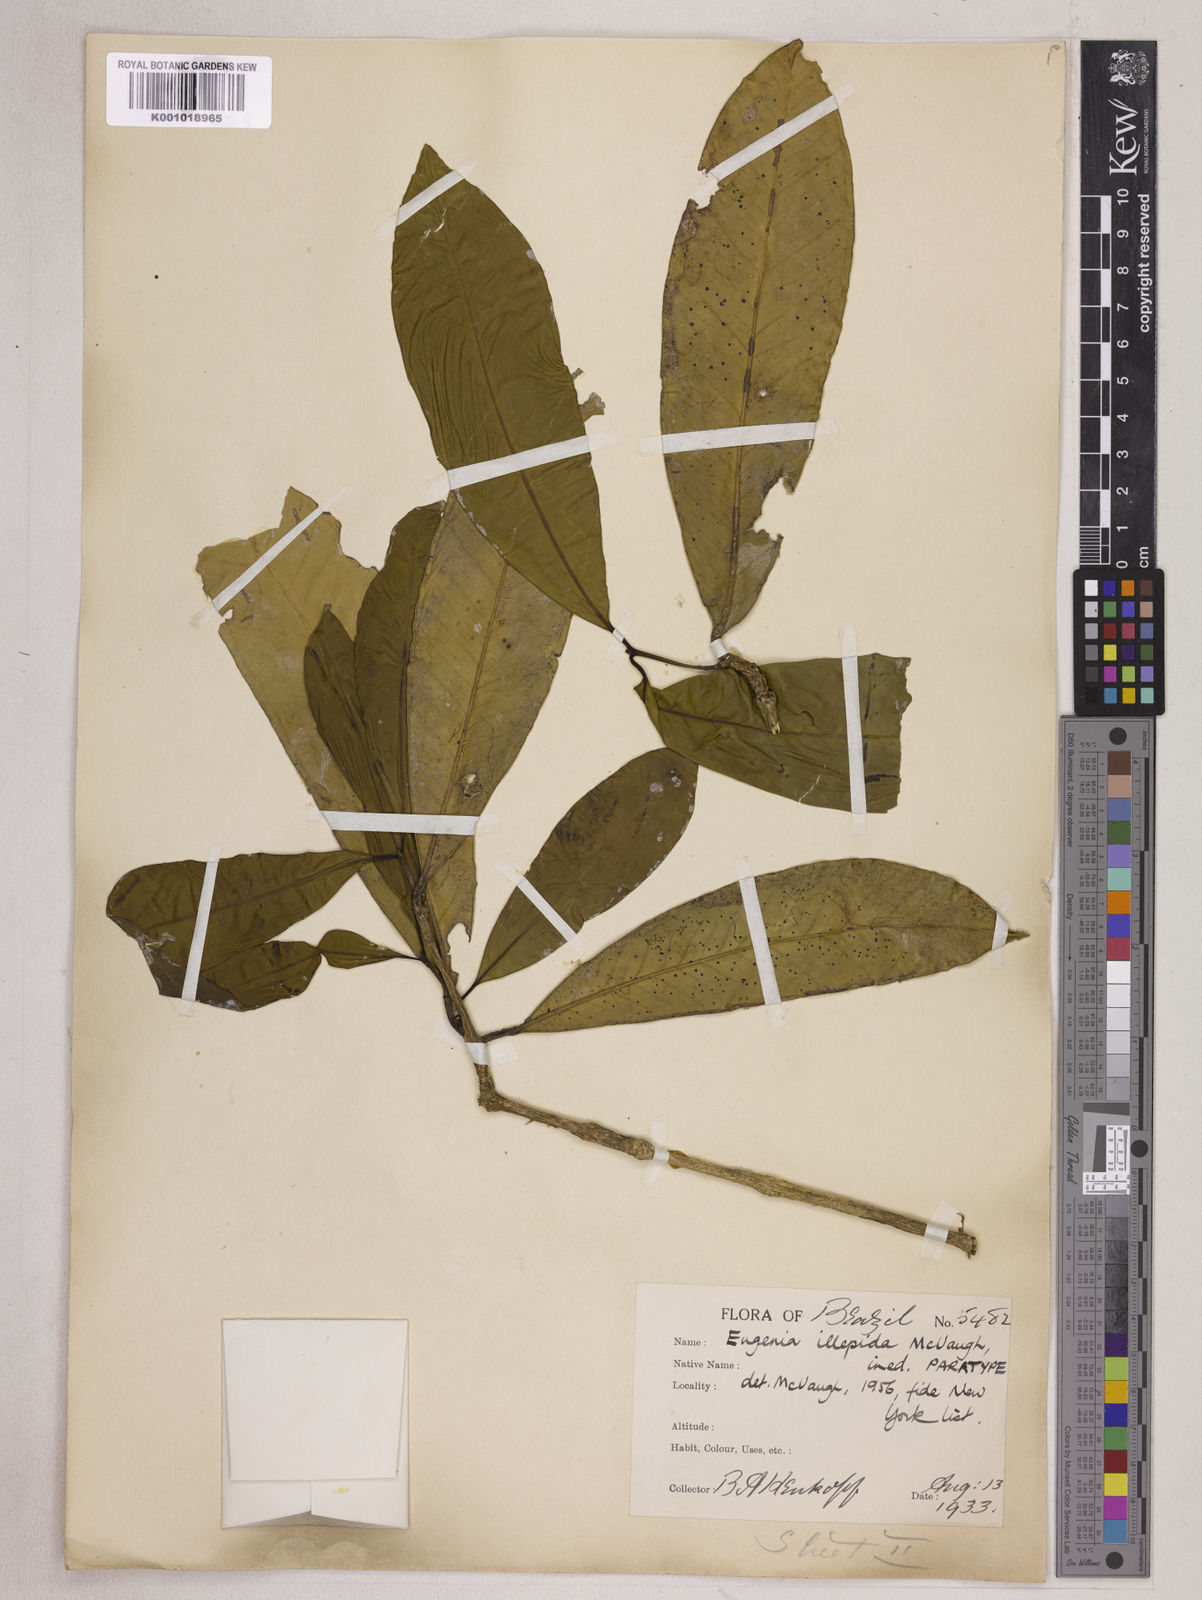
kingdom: Plantae
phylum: Tracheophyta
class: Magnoliopsida
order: Myrtales
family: Myrtaceae
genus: Eugenia
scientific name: Eugenia illepida
